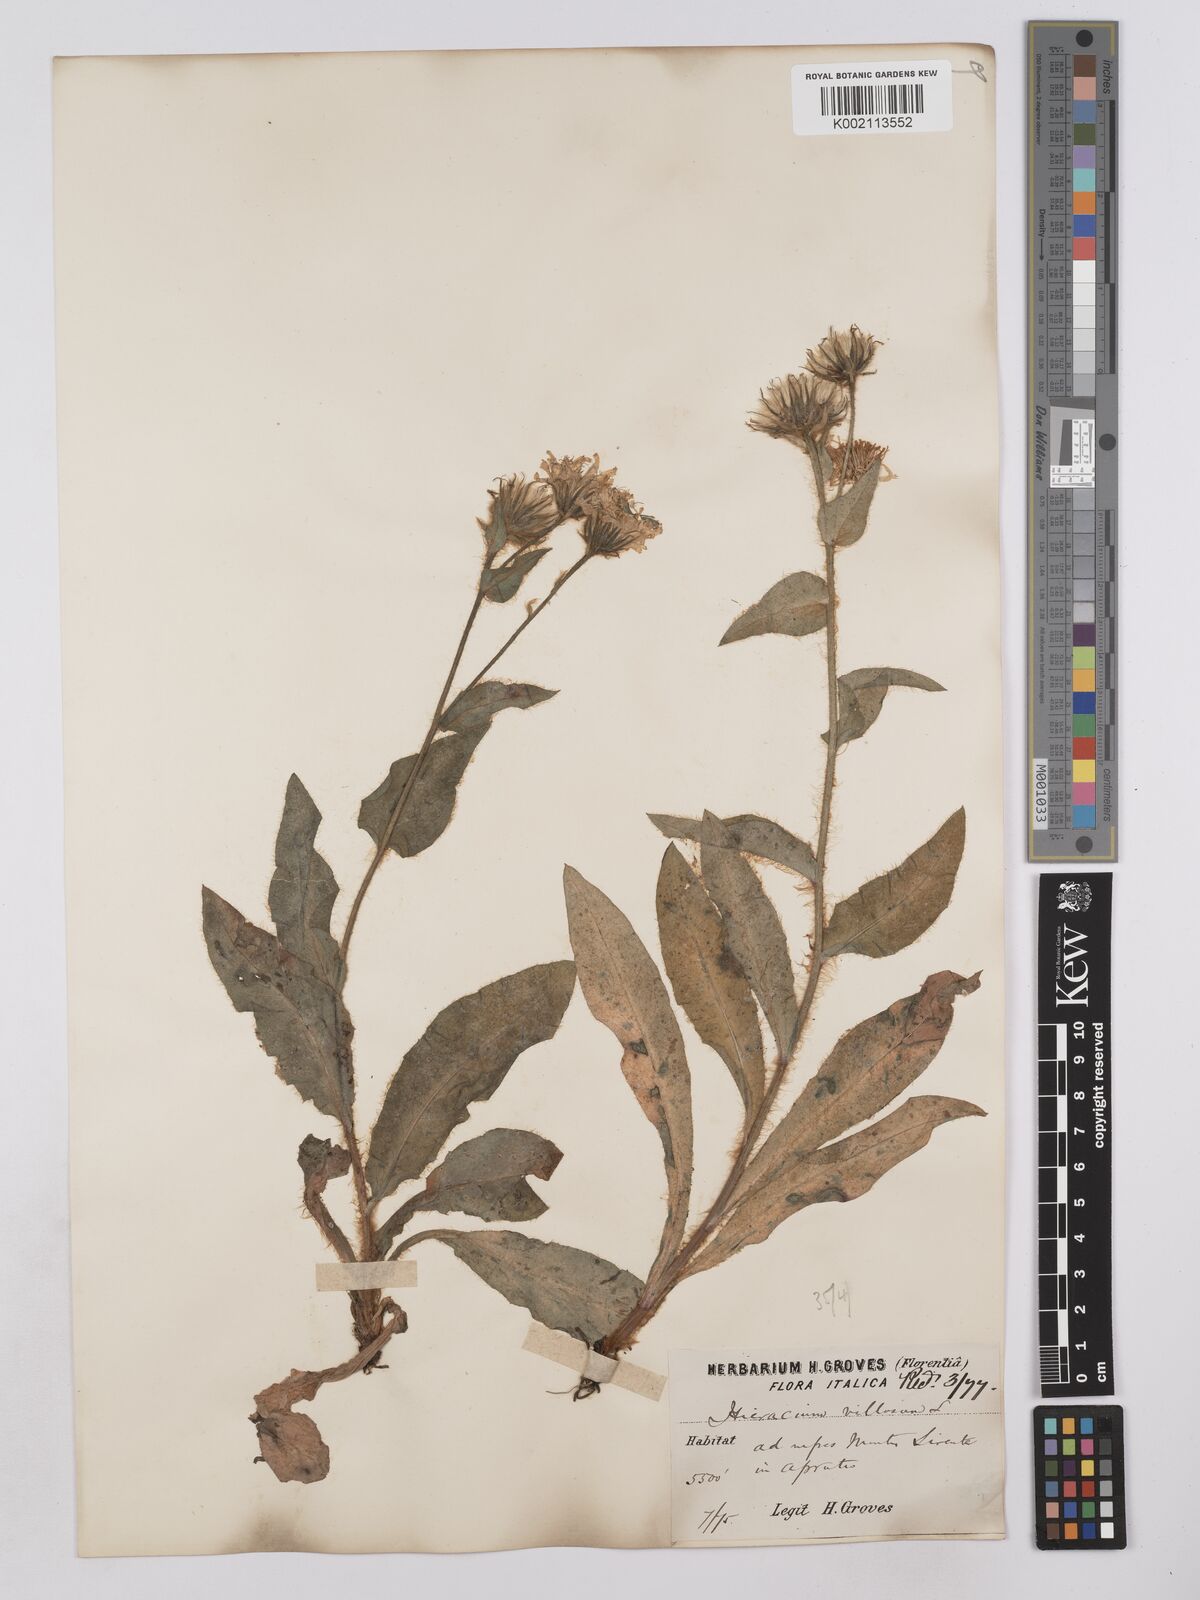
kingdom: Plantae
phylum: Tracheophyta
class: Magnoliopsida
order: Asterales
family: Asteraceae
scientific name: Asteraceae
